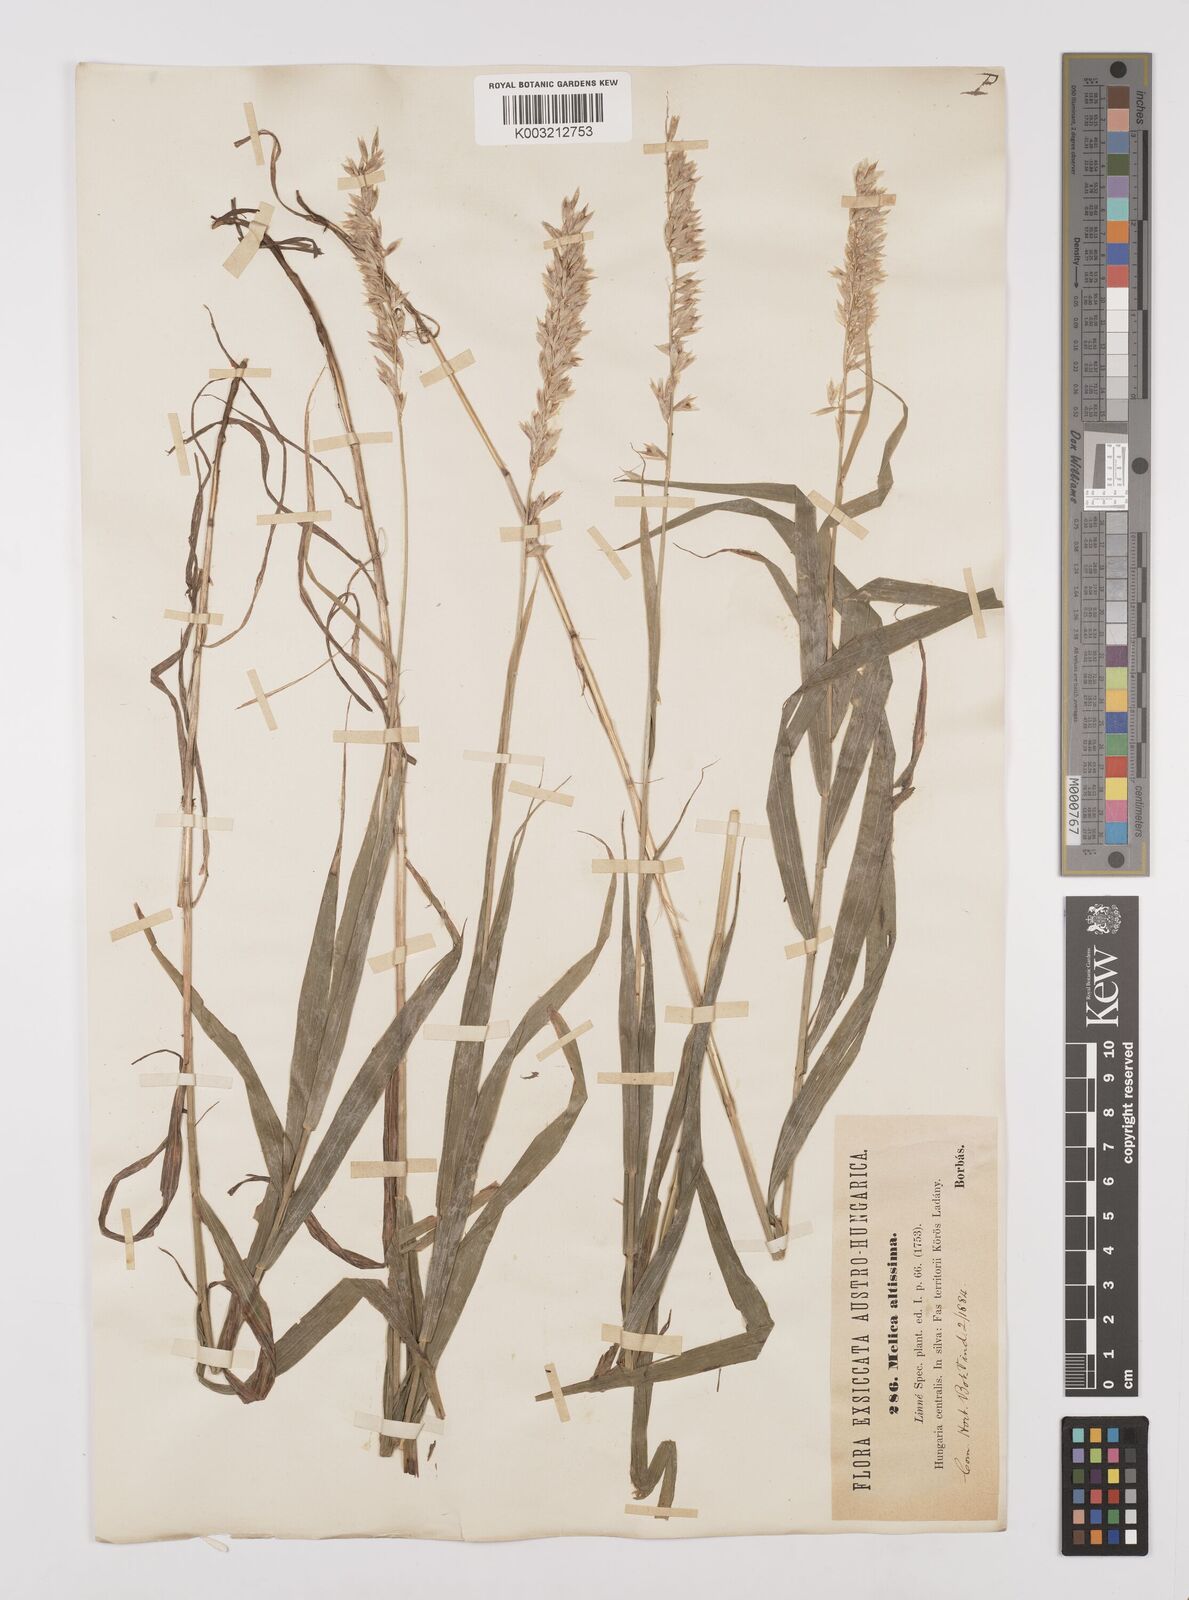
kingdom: Plantae
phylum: Tracheophyta
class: Liliopsida
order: Poales
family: Poaceae
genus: Melica
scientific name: Melica altissima
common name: Siberian melicgrass
